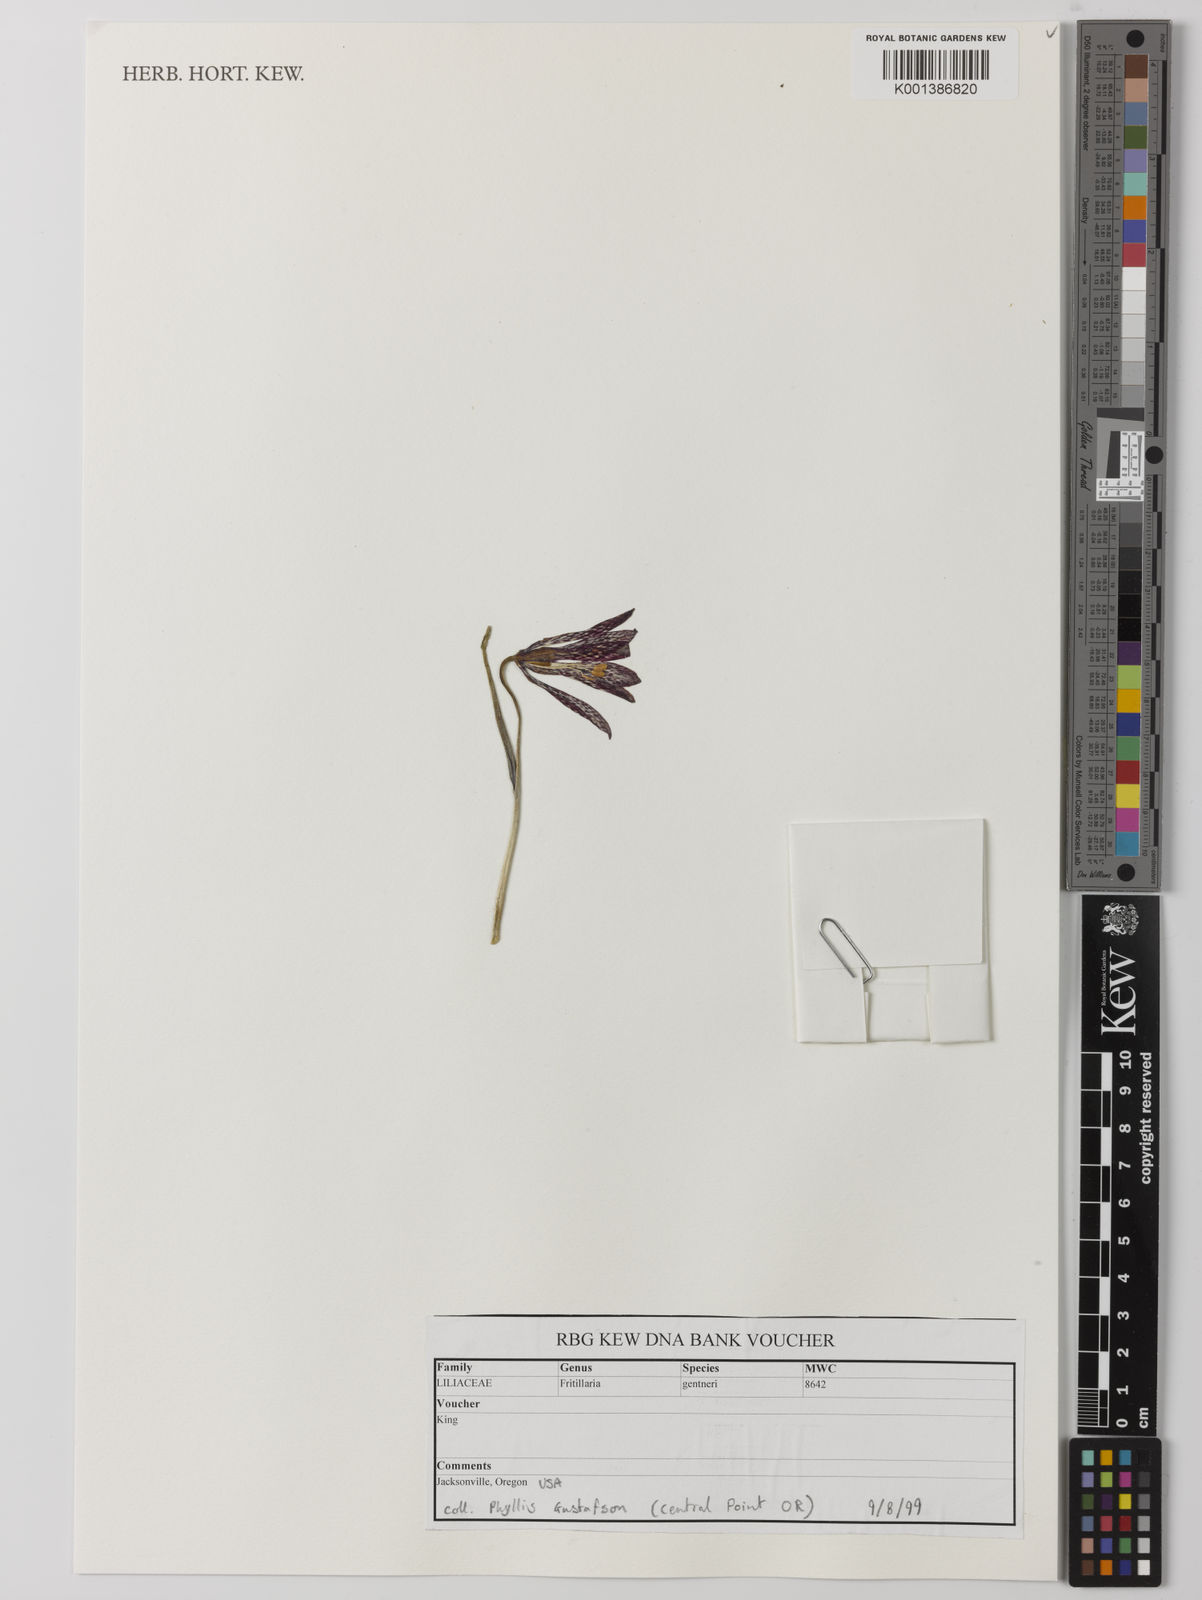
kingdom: Plantae
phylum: Tracheophyta
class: Liliopsida
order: Liliales
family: Liliaceae
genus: Fritillaria
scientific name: Fritillaria gentneri
